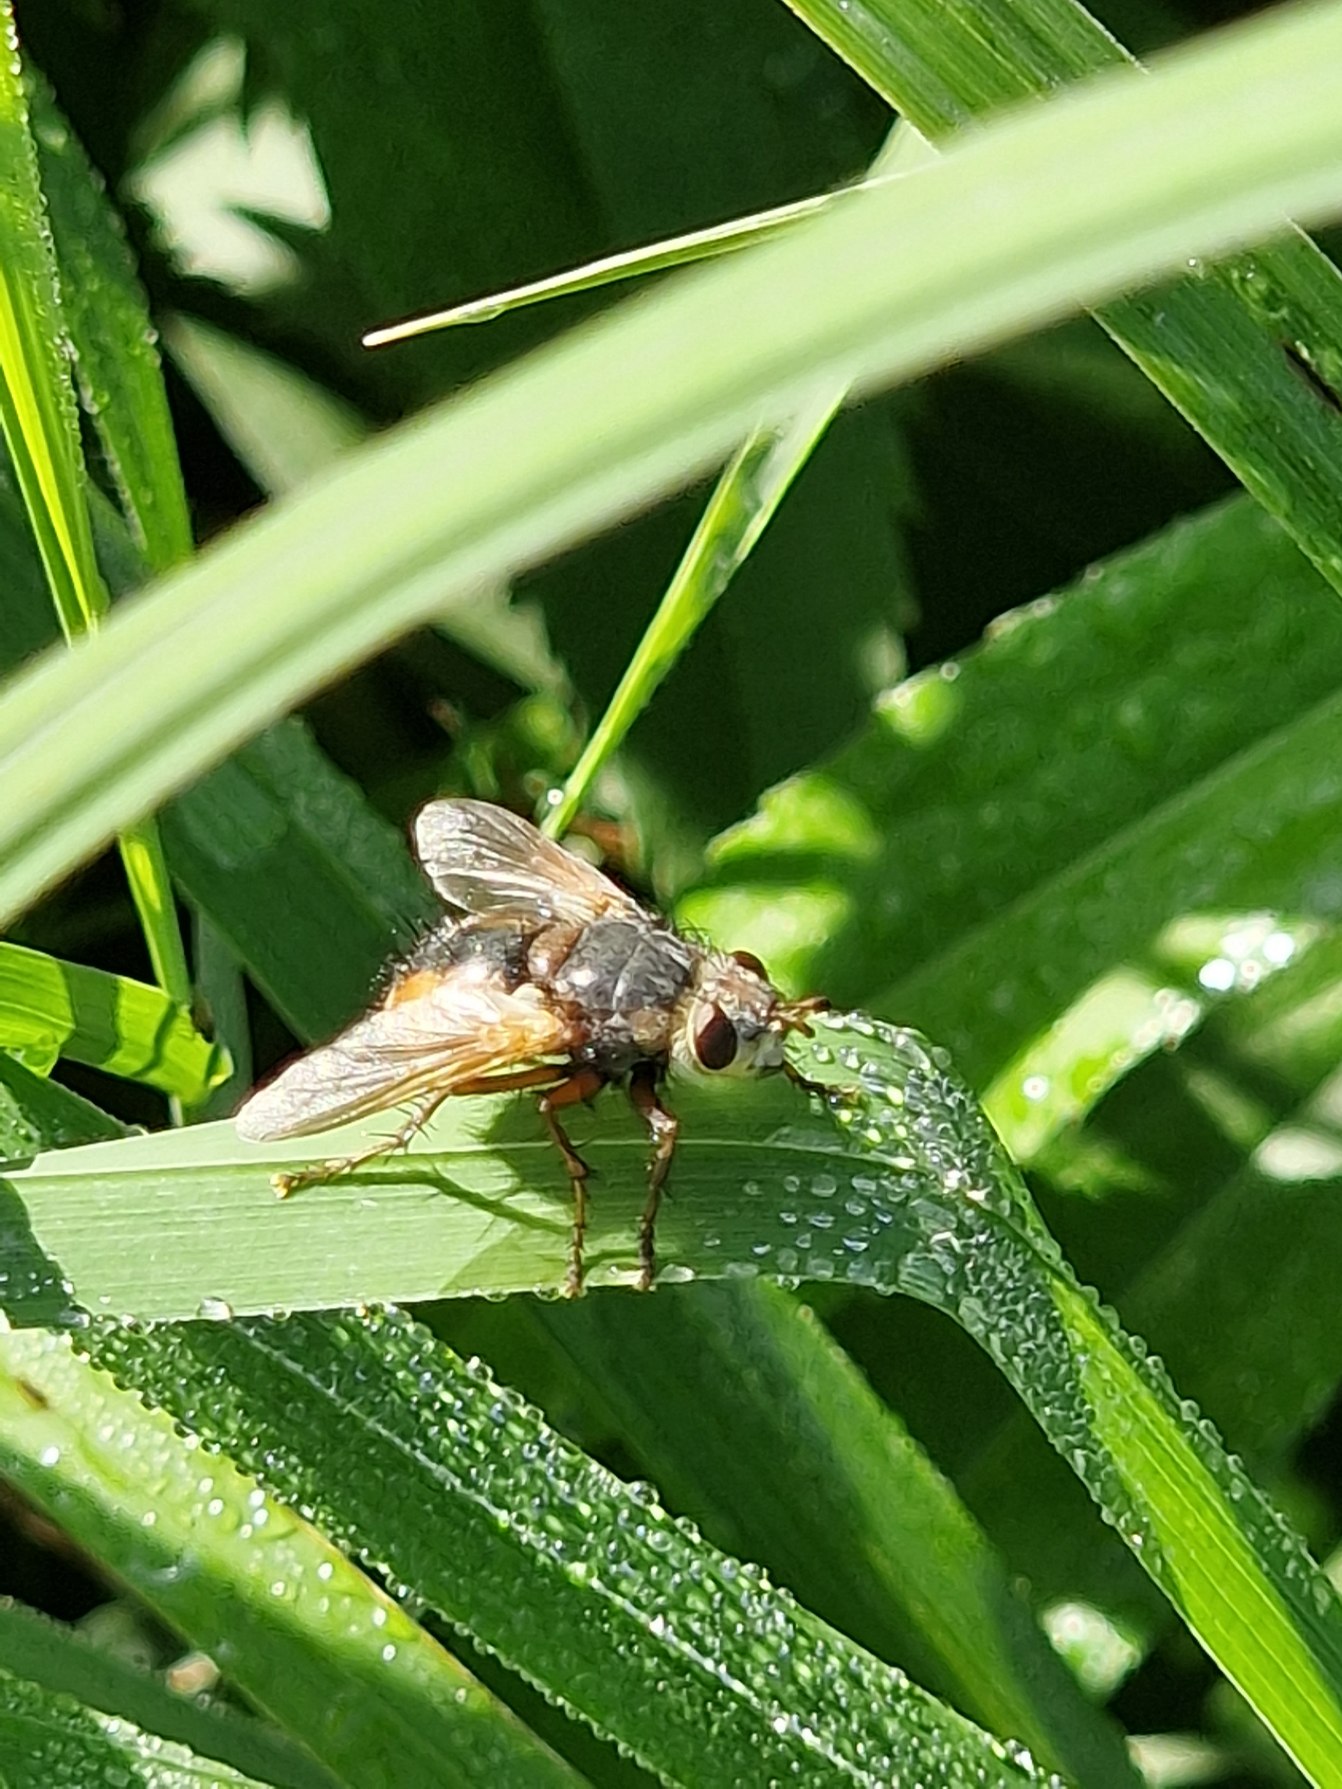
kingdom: Animalia
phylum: Arthropoda
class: Insecta
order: Diptera
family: Tachinidae
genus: Tachina
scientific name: Tachina fera
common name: Mellemfluen oskar
